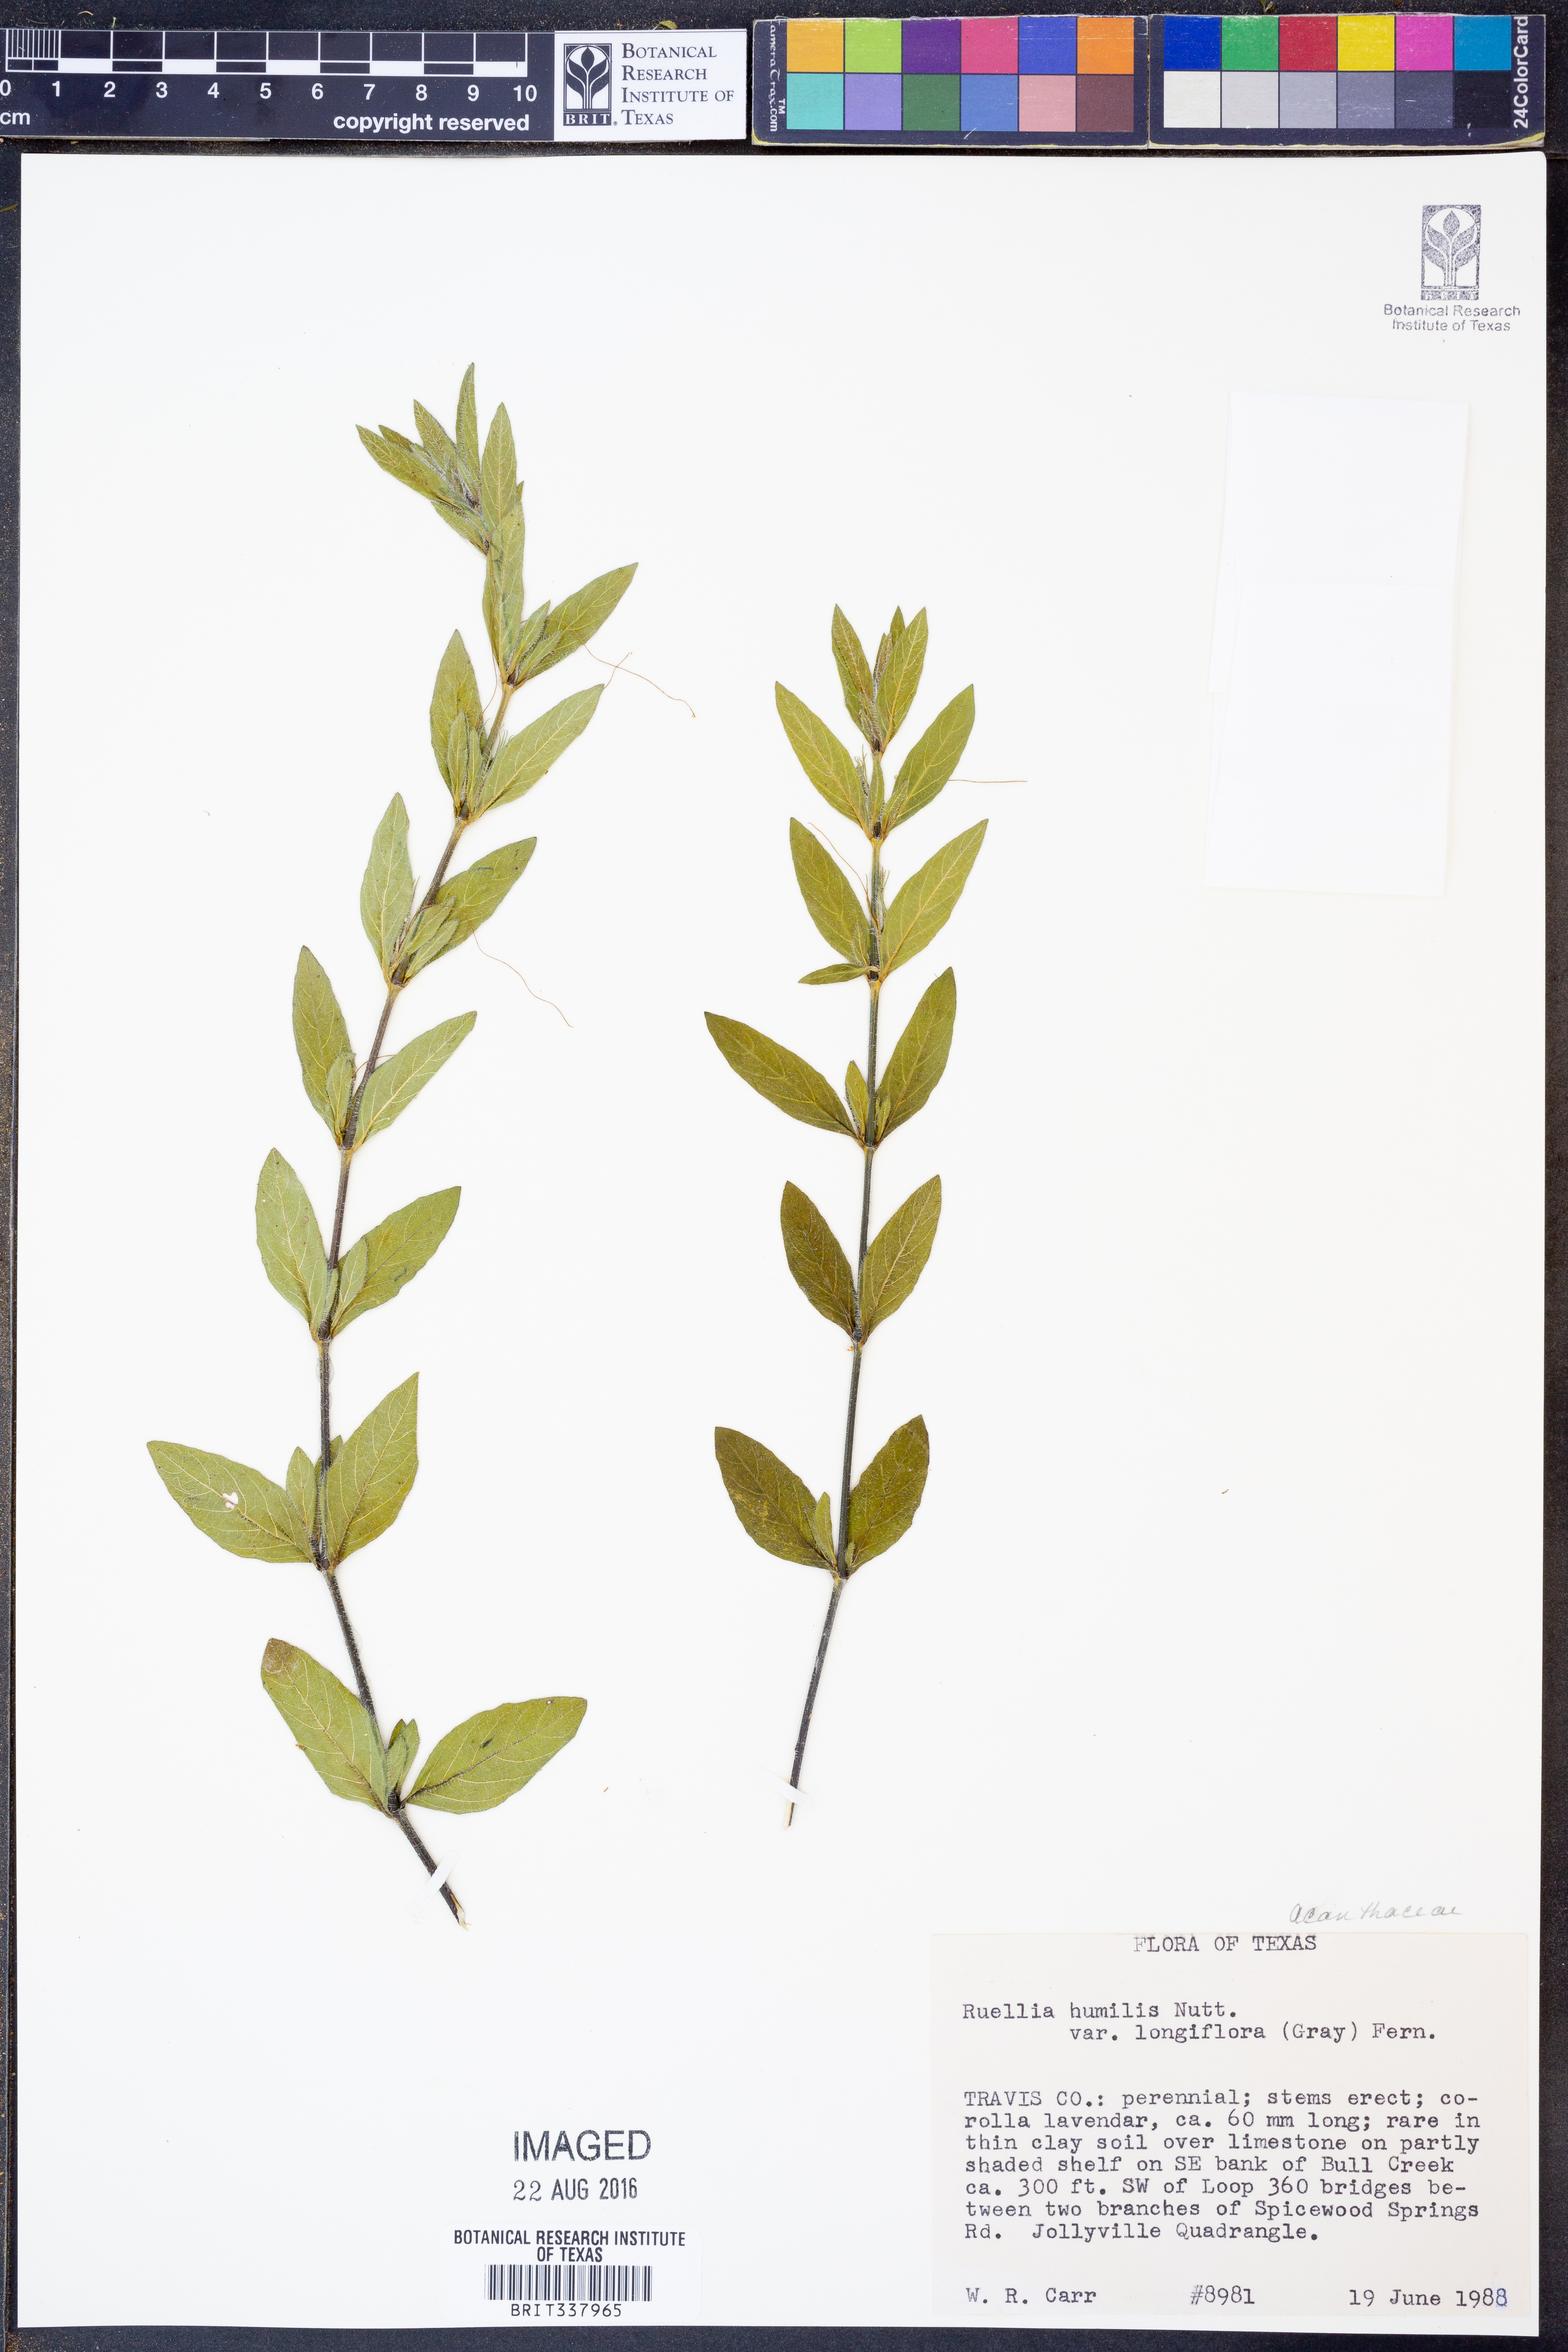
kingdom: Plantae
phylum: Tracheophyta
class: Magnoliopsida
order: Lamiales
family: Acanthaceae
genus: Ruellia
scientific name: Ruellia humilis
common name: Fringe-leaf ruellia
